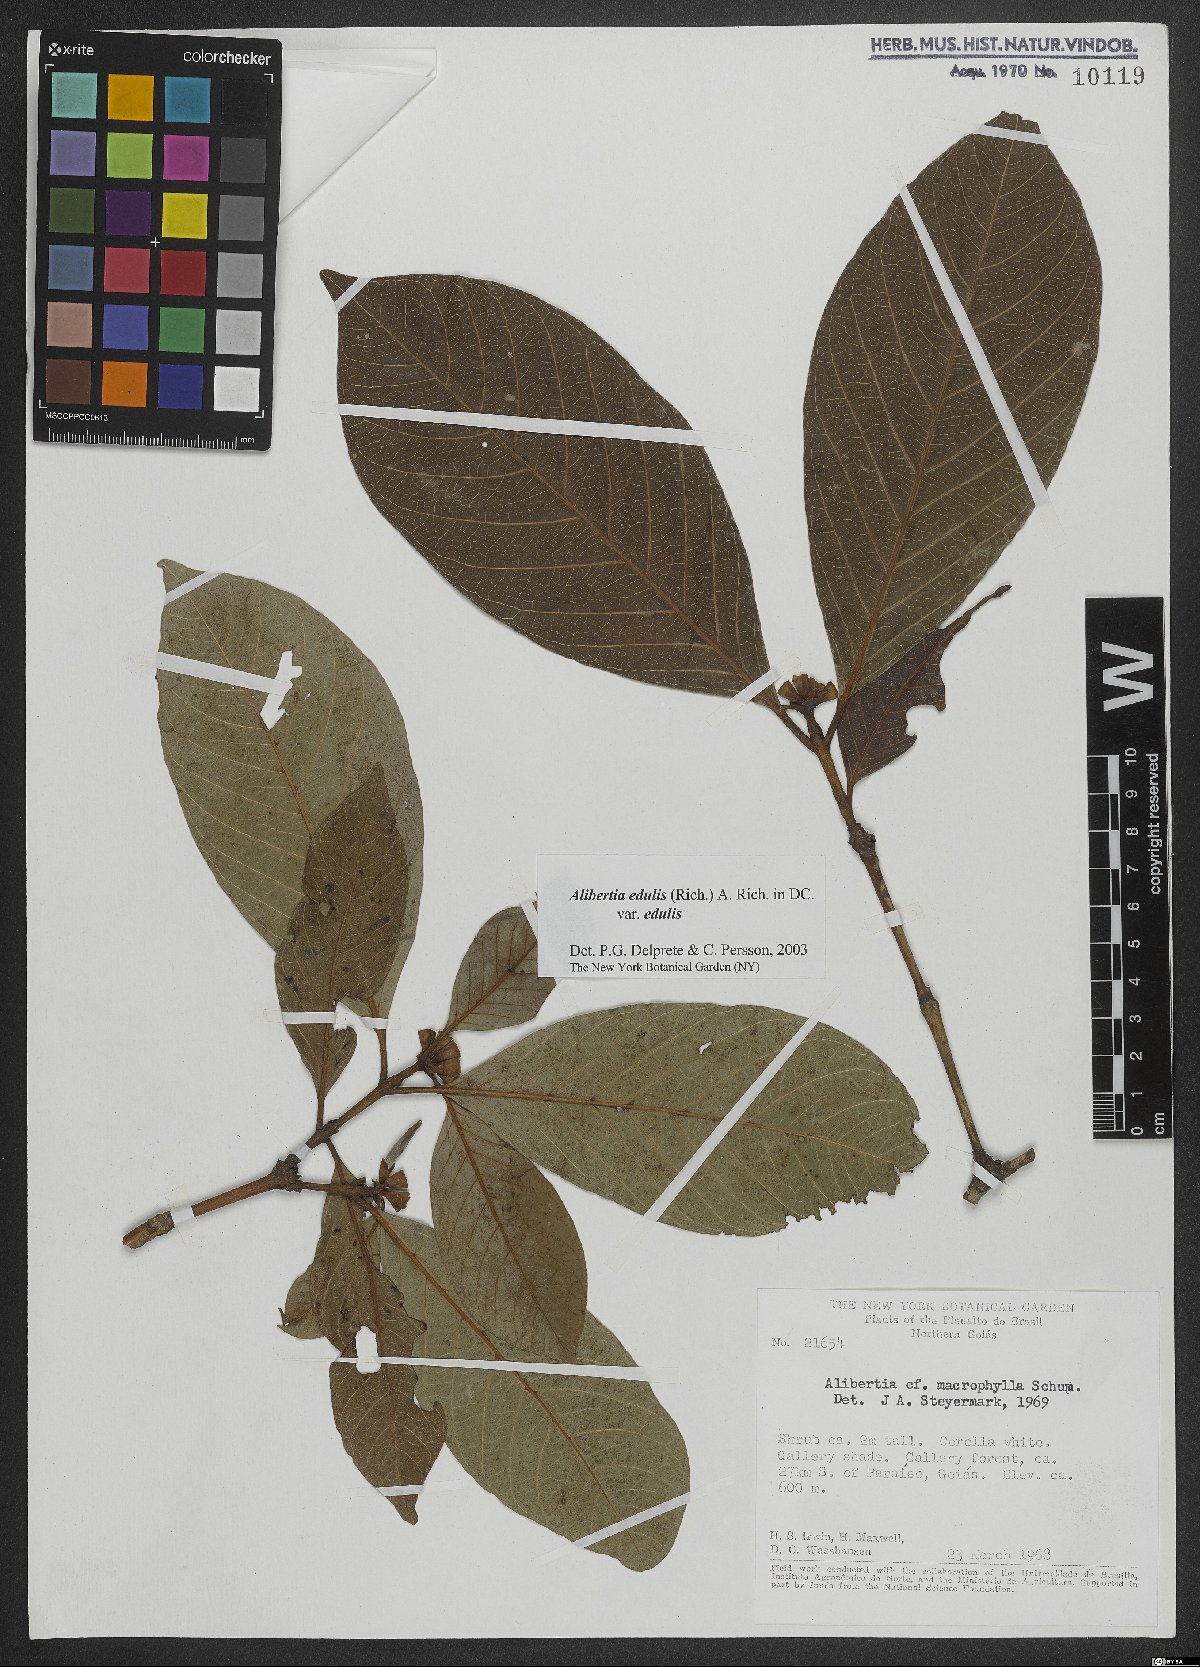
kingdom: Plantae
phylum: Tracheophyta
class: Magnoliopsida
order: Gentianales
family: Rubiaceae
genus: Alibertia
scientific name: Alibertia edulis
